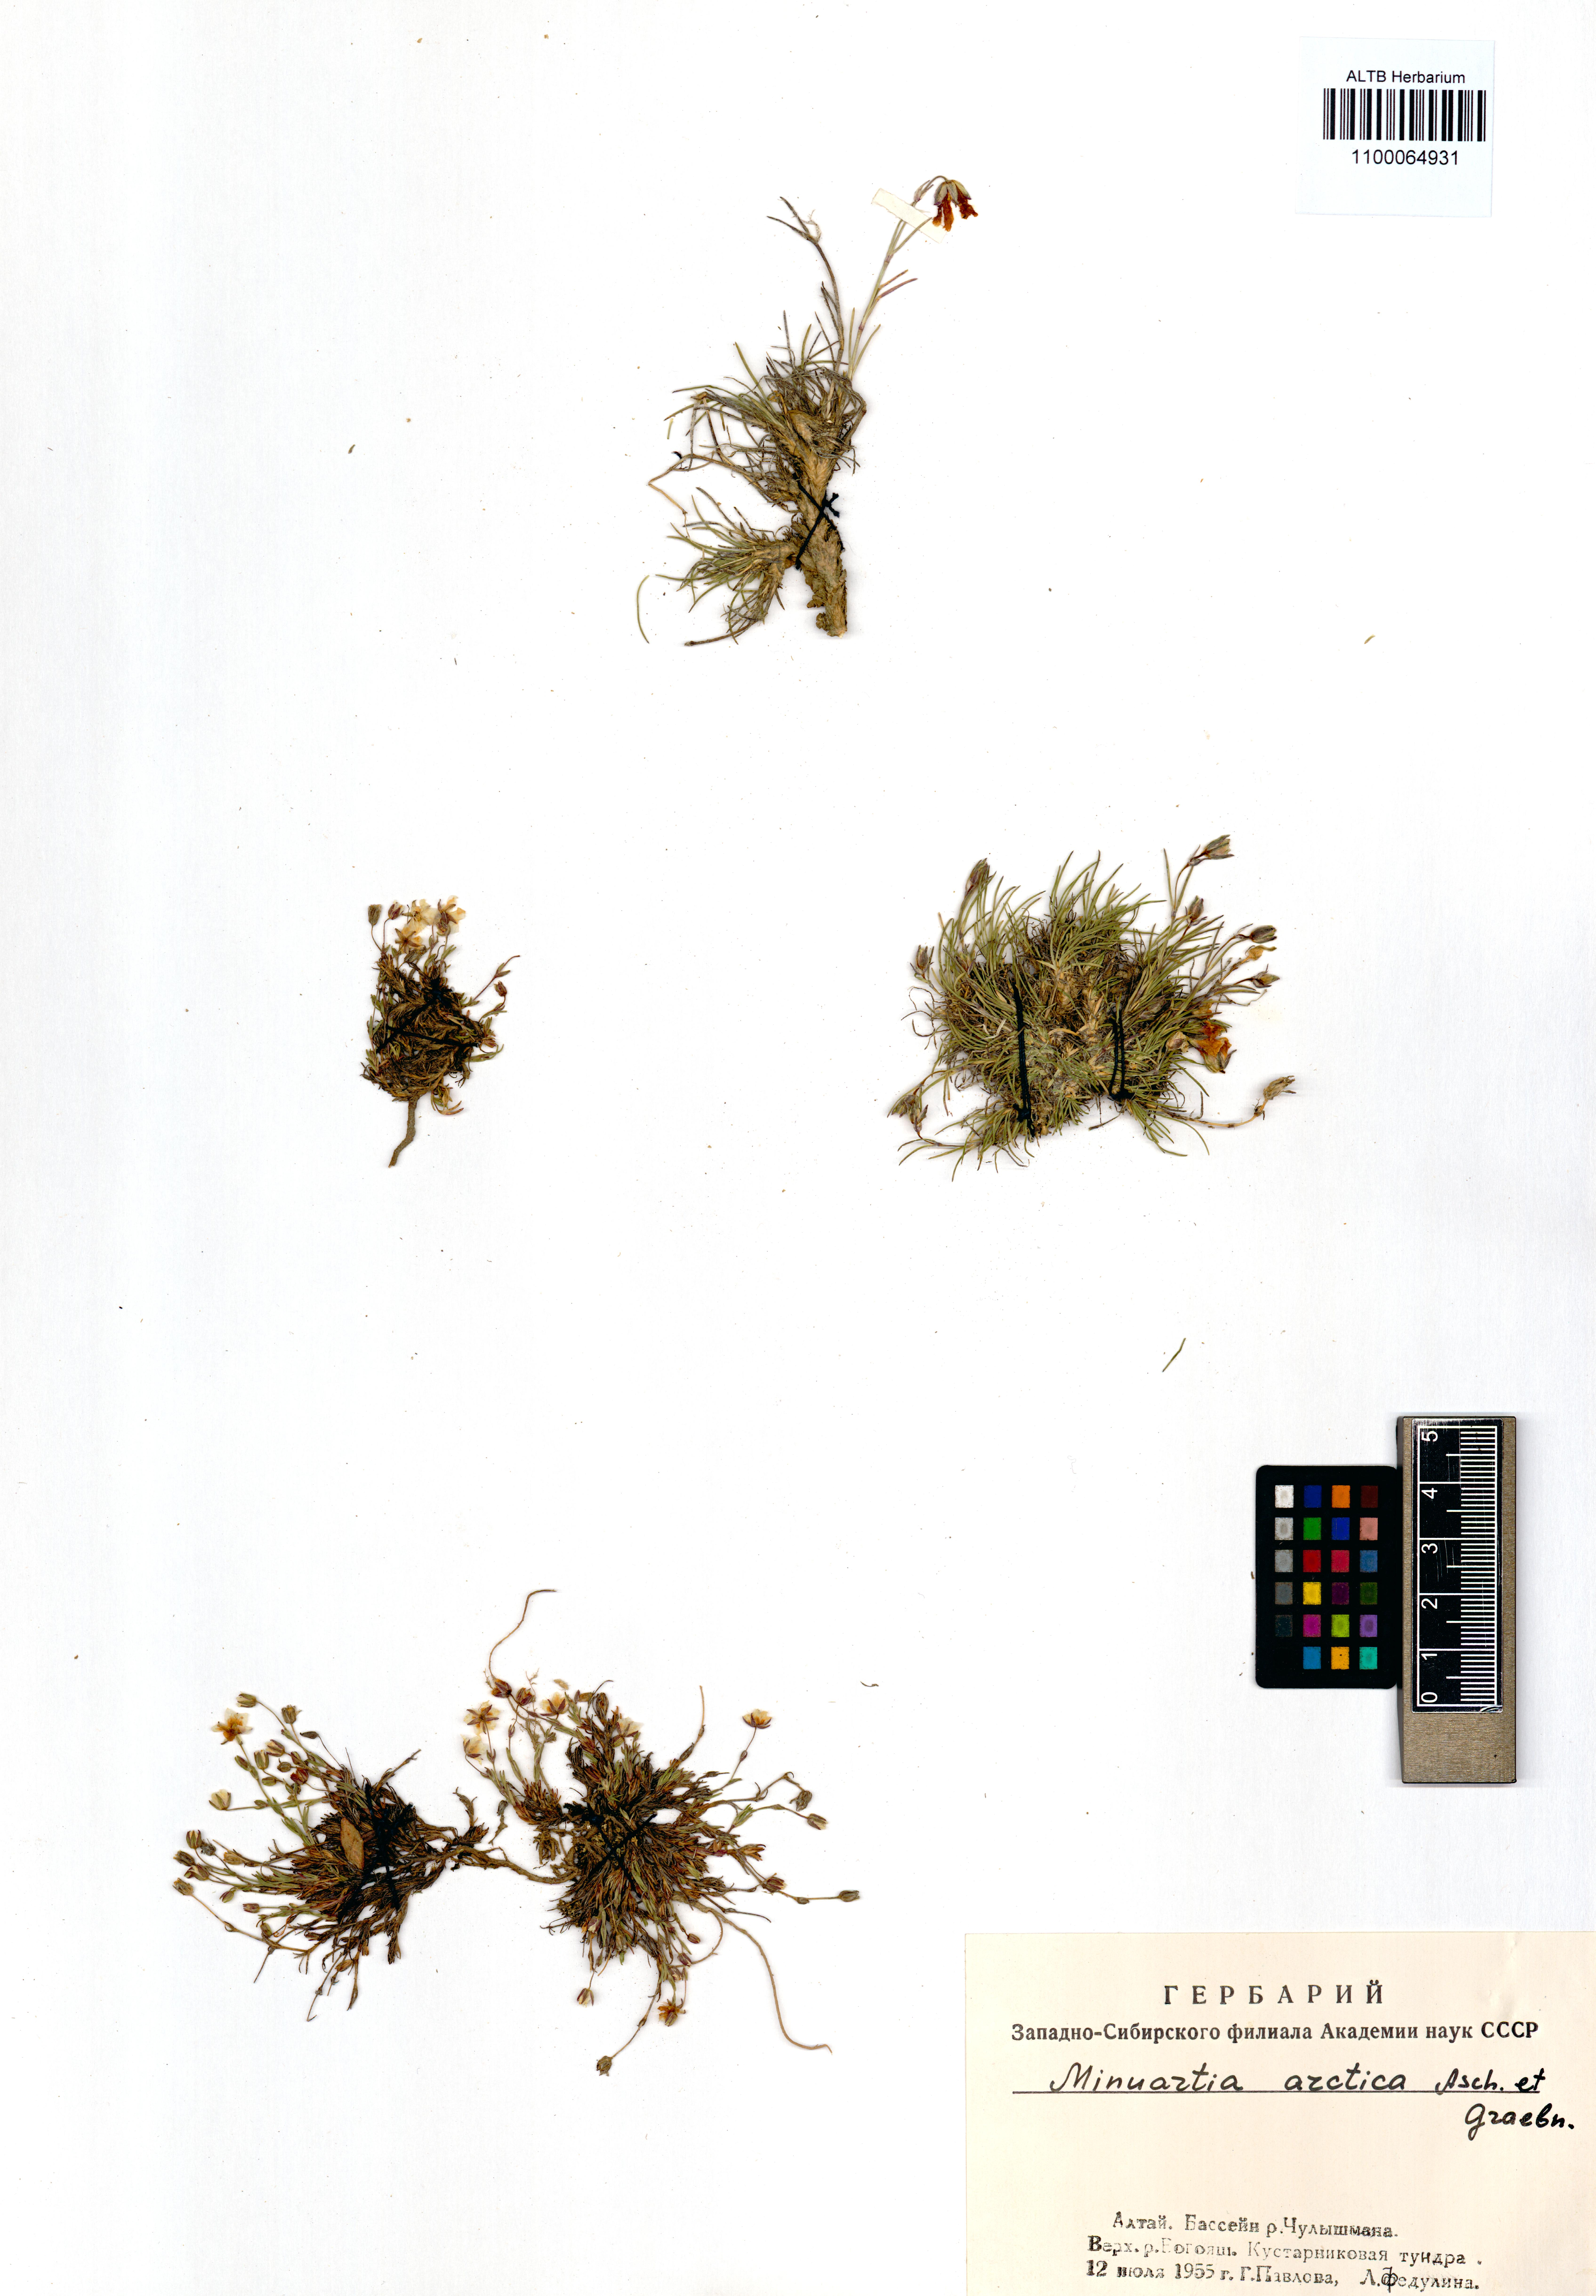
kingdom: Plantae
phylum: Tracheophyta
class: Magnoliopsida
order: Caryophyllales
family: Caryophyllaceae
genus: Cherleria
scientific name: Cherleria arctica
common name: Arctic sandwort
